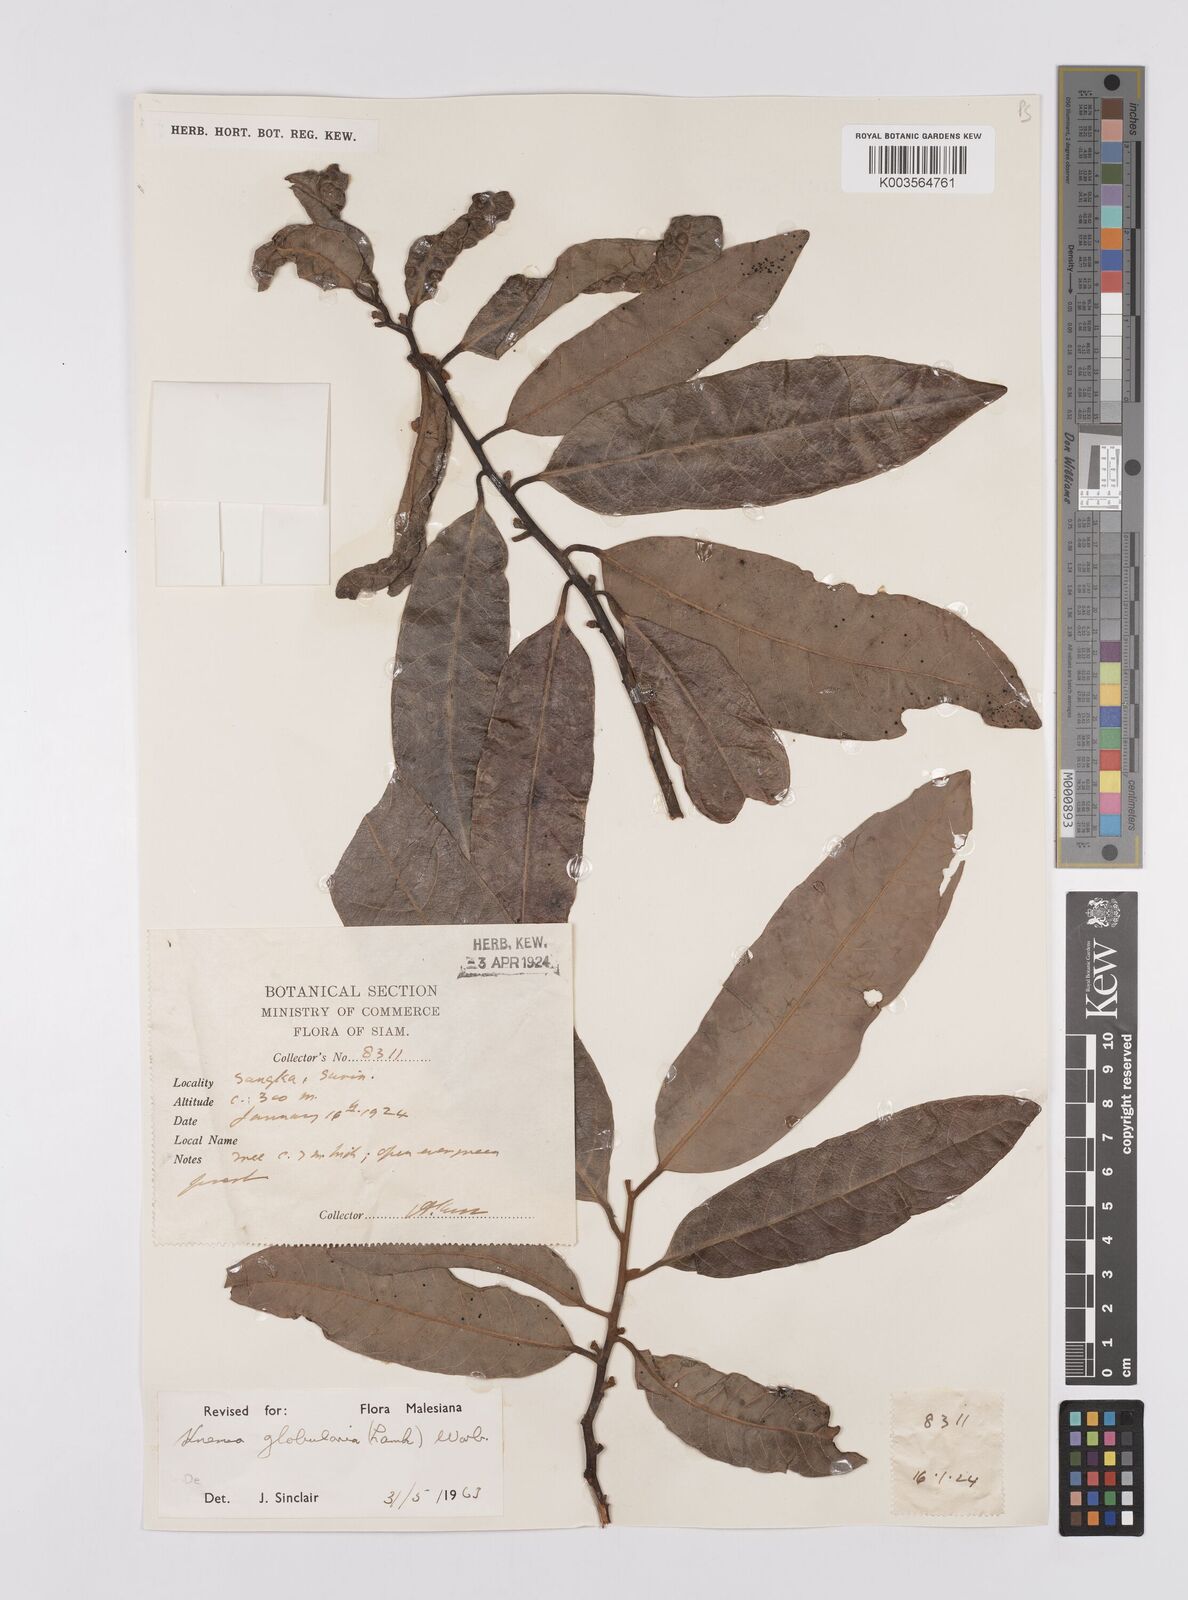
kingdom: Plantae
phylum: Tracheophyta
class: Magnoliopsida
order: Magnoliales
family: Myristicaceae
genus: Knema
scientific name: Knema globularia
